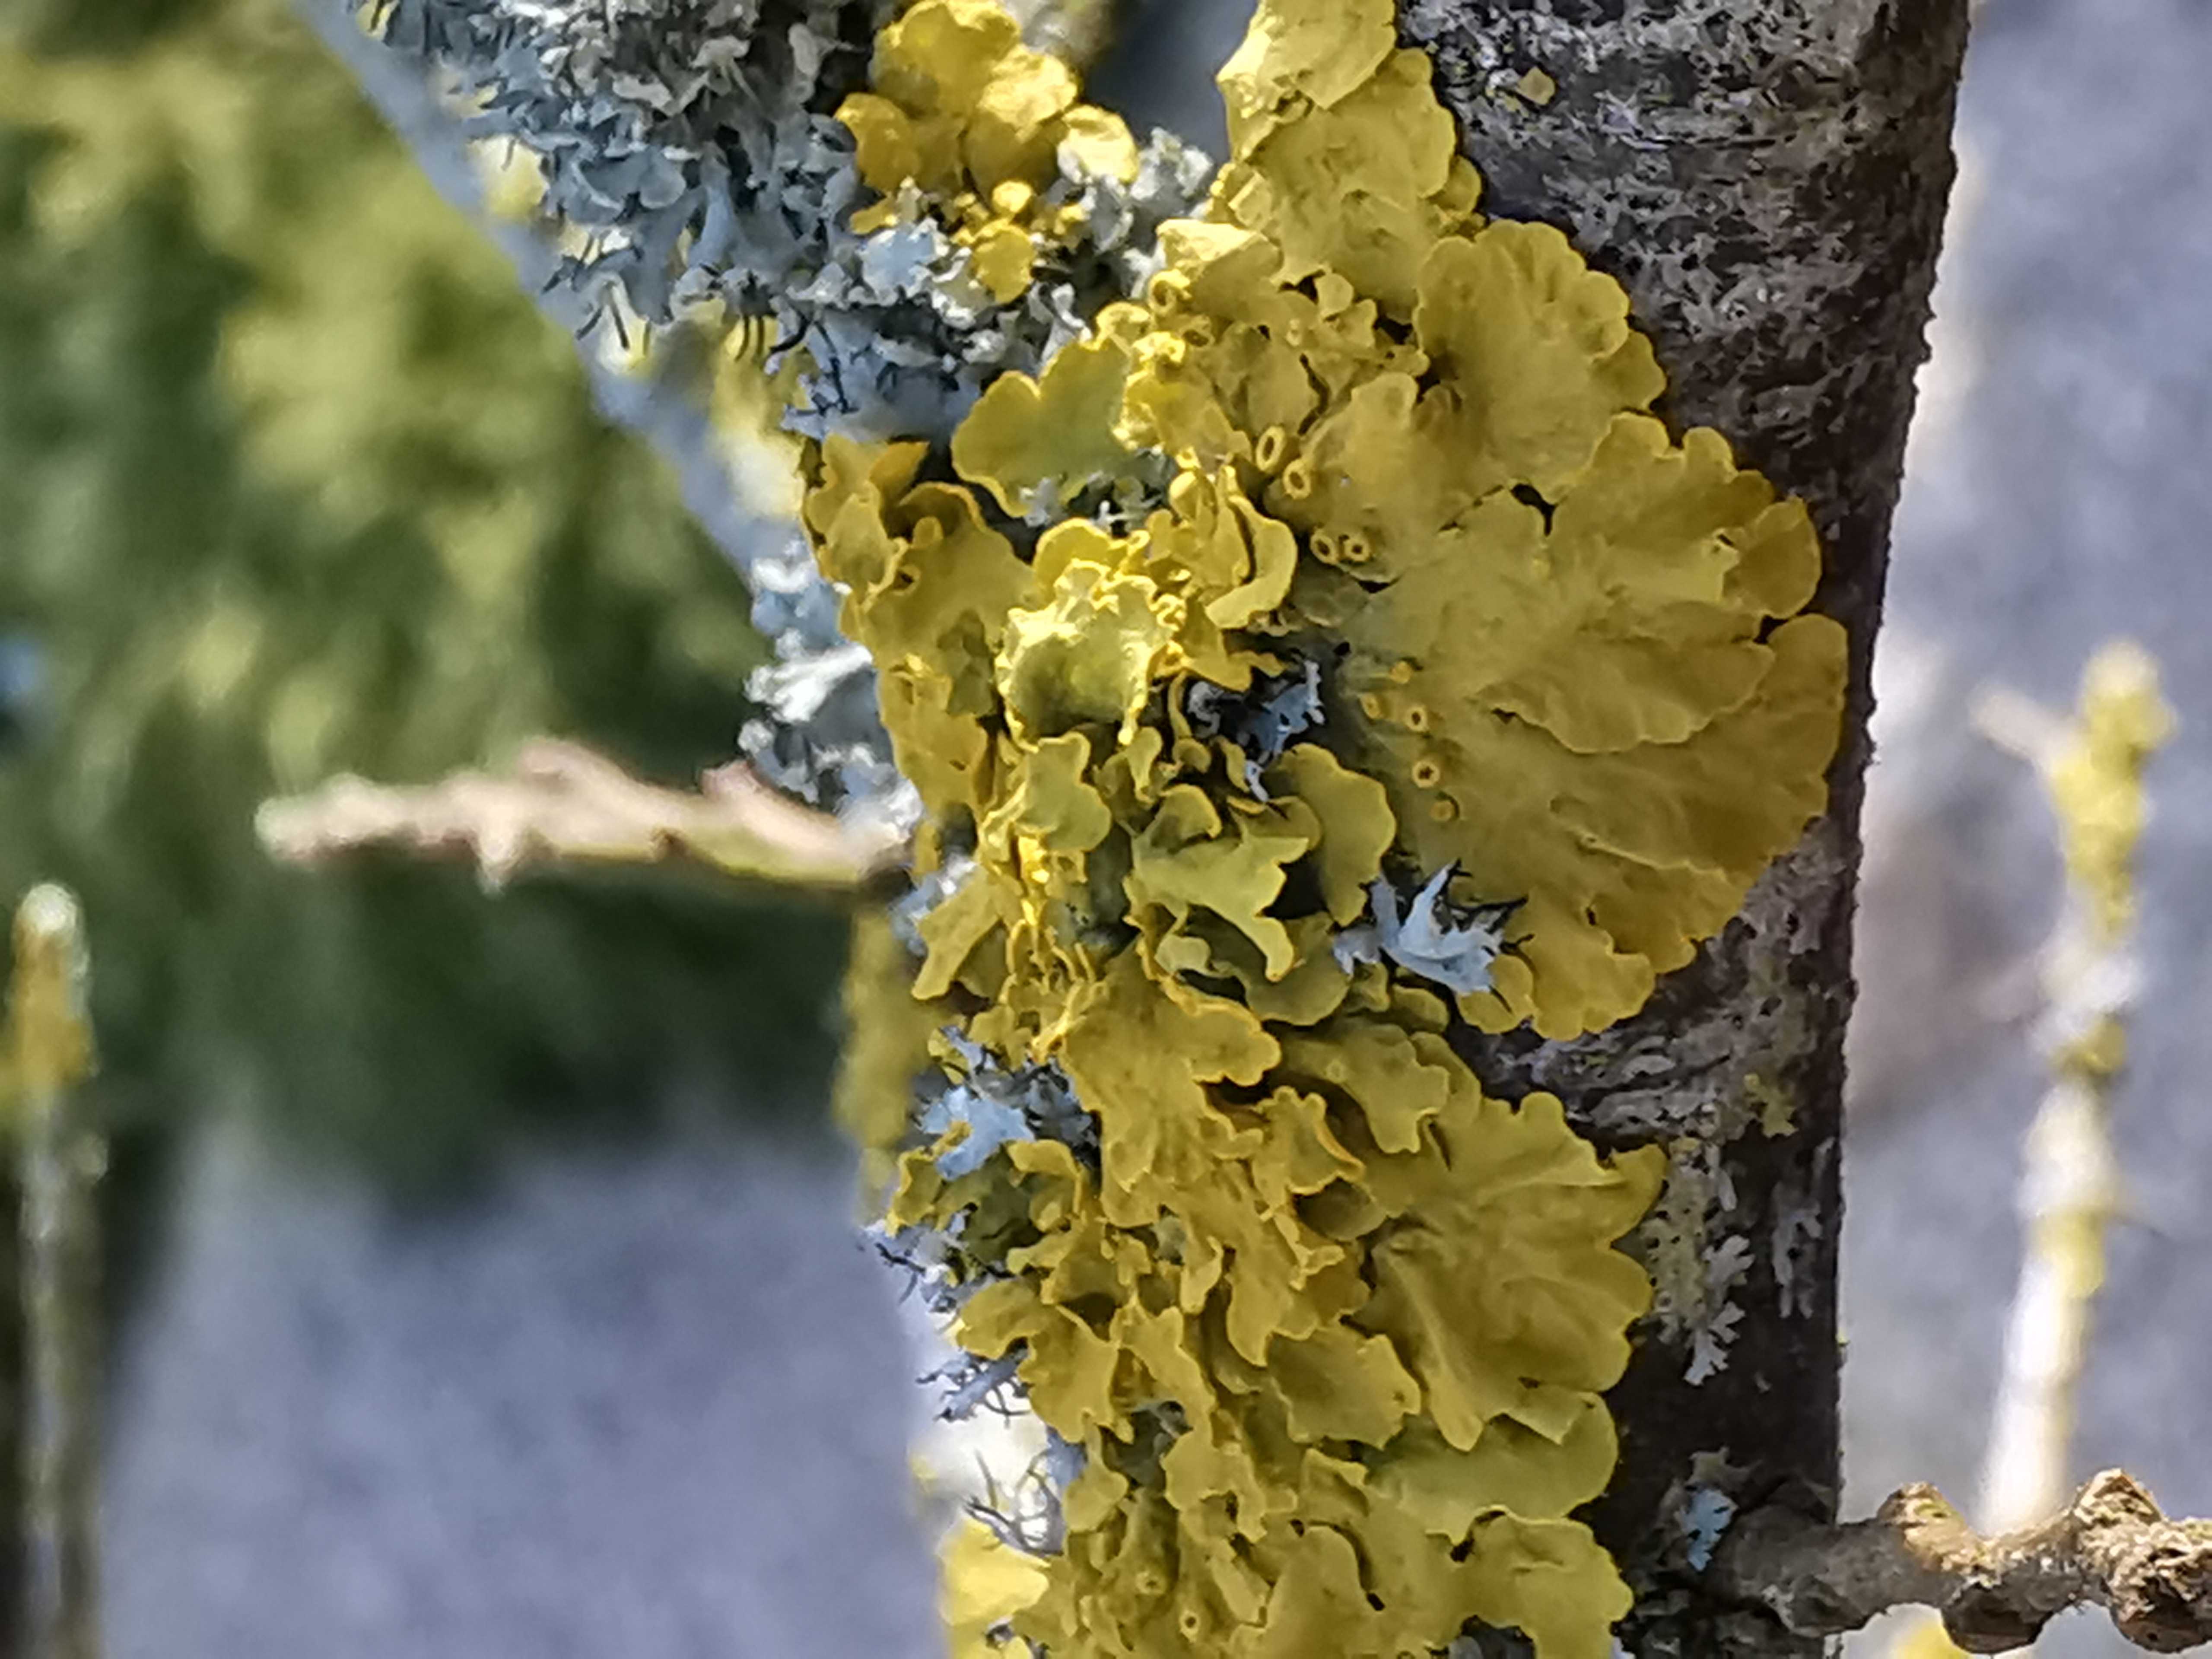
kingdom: Fungi
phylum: Ascomycota
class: Lecanoromycetes
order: Teloschistales
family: Teloschistaceae
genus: Xanthoria
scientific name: Xanthoria parietina
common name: almindelig væggelav
